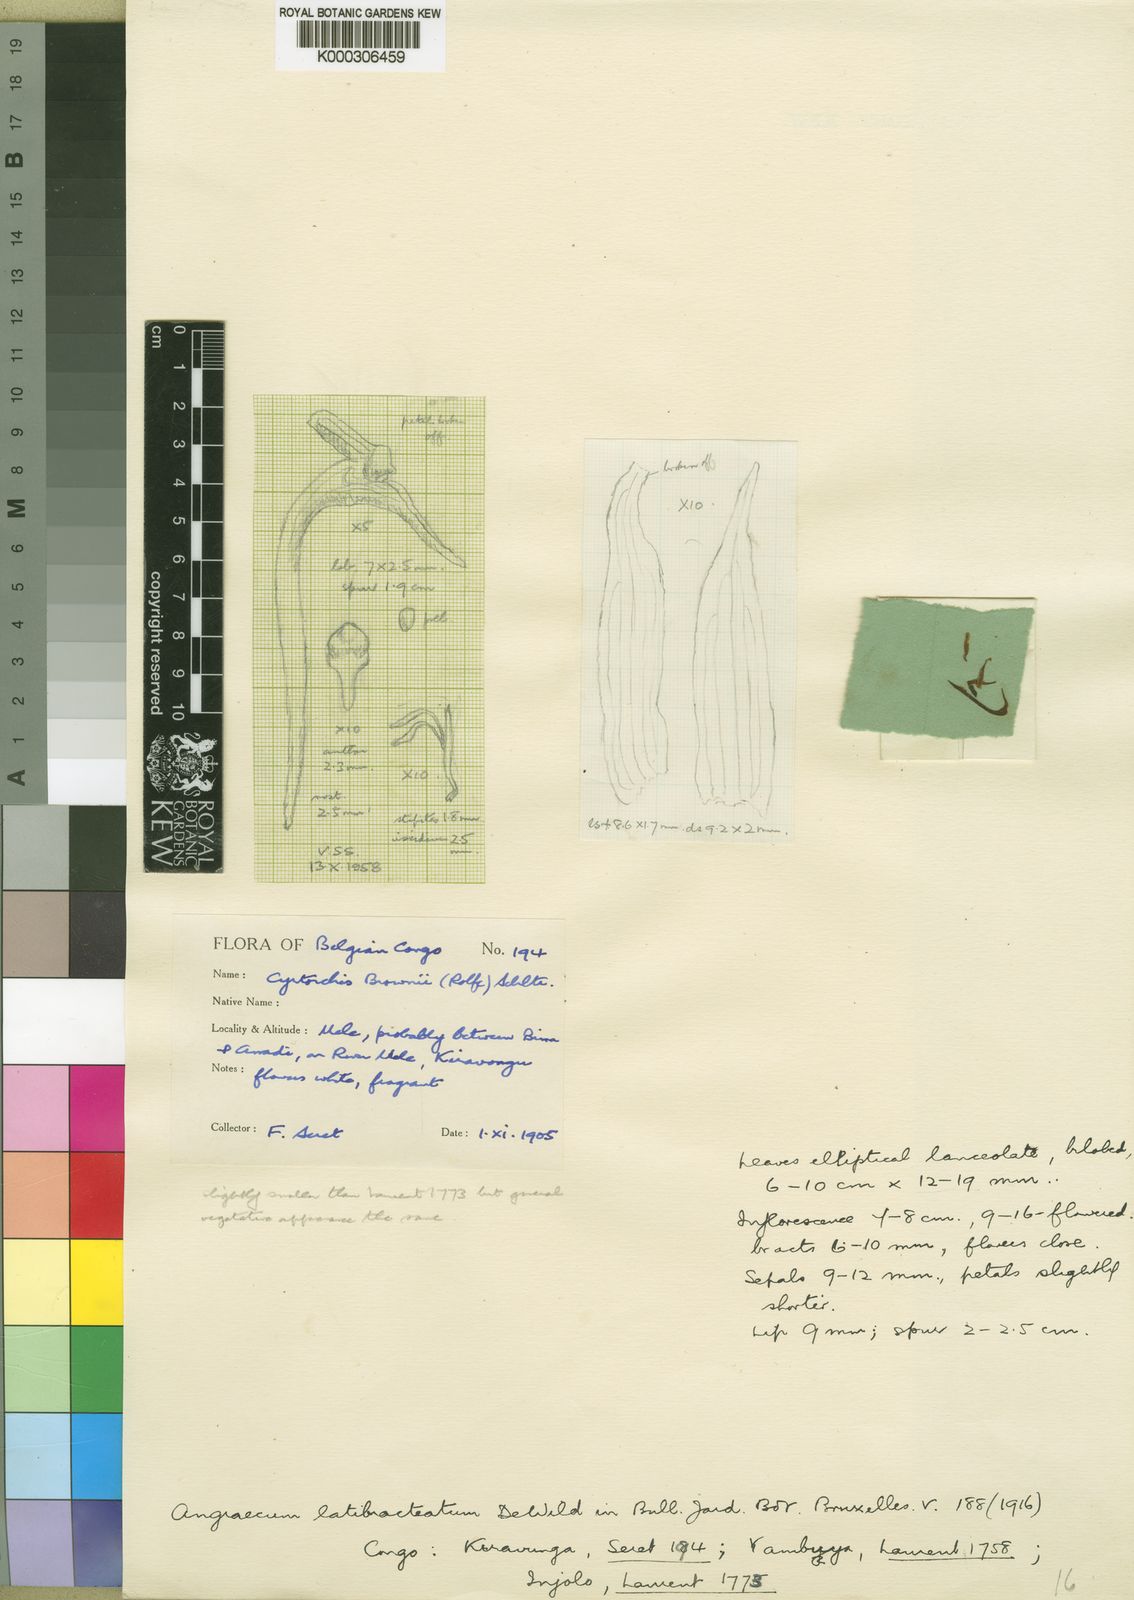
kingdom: Plantae
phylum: Tracheophyta
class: Liliopsida
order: Asparagales
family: Orchidaceae
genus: Cyrtorchis
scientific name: Cyrtorchis brownii
